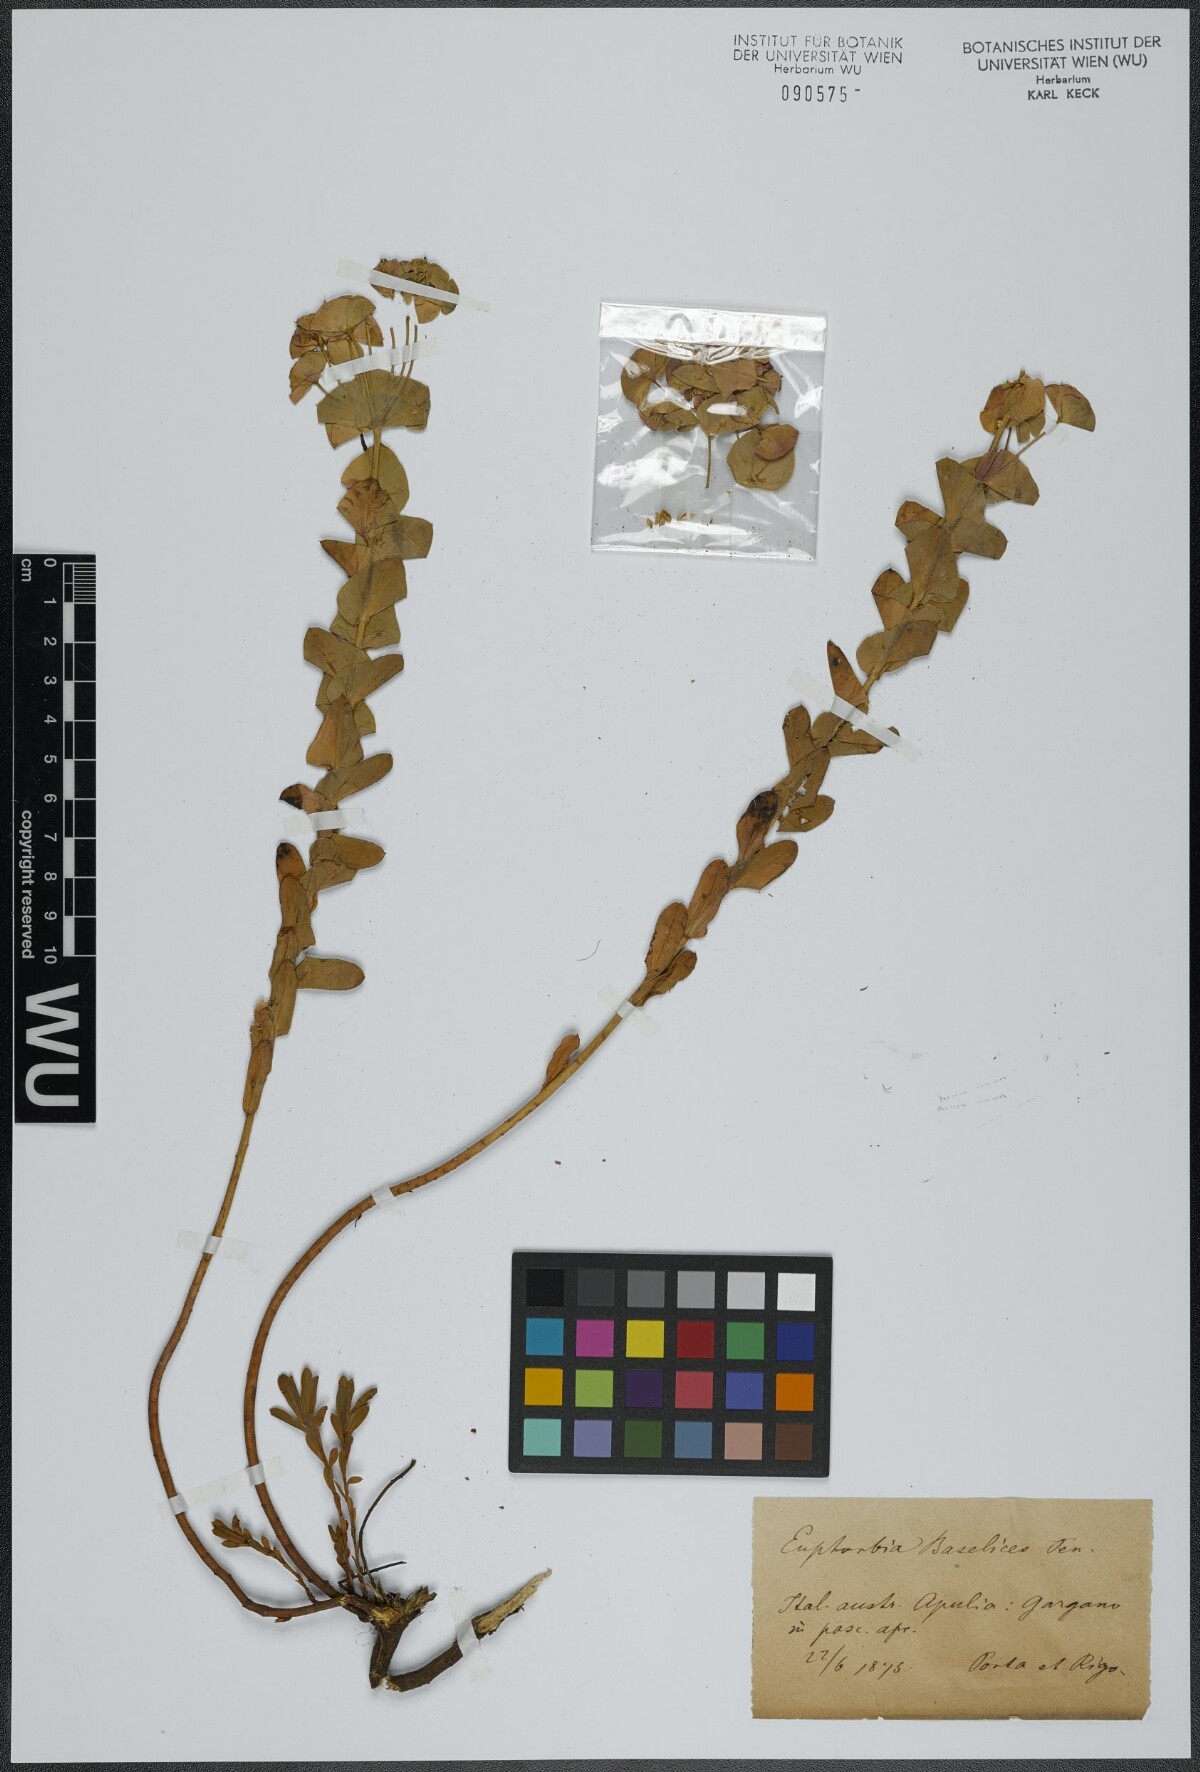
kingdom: Plantae
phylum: Tracheophyta
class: Magnoliopsida
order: Malpighiales
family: Euphorbiaceae
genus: Euphorbia
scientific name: Euphorbia barrelieri
